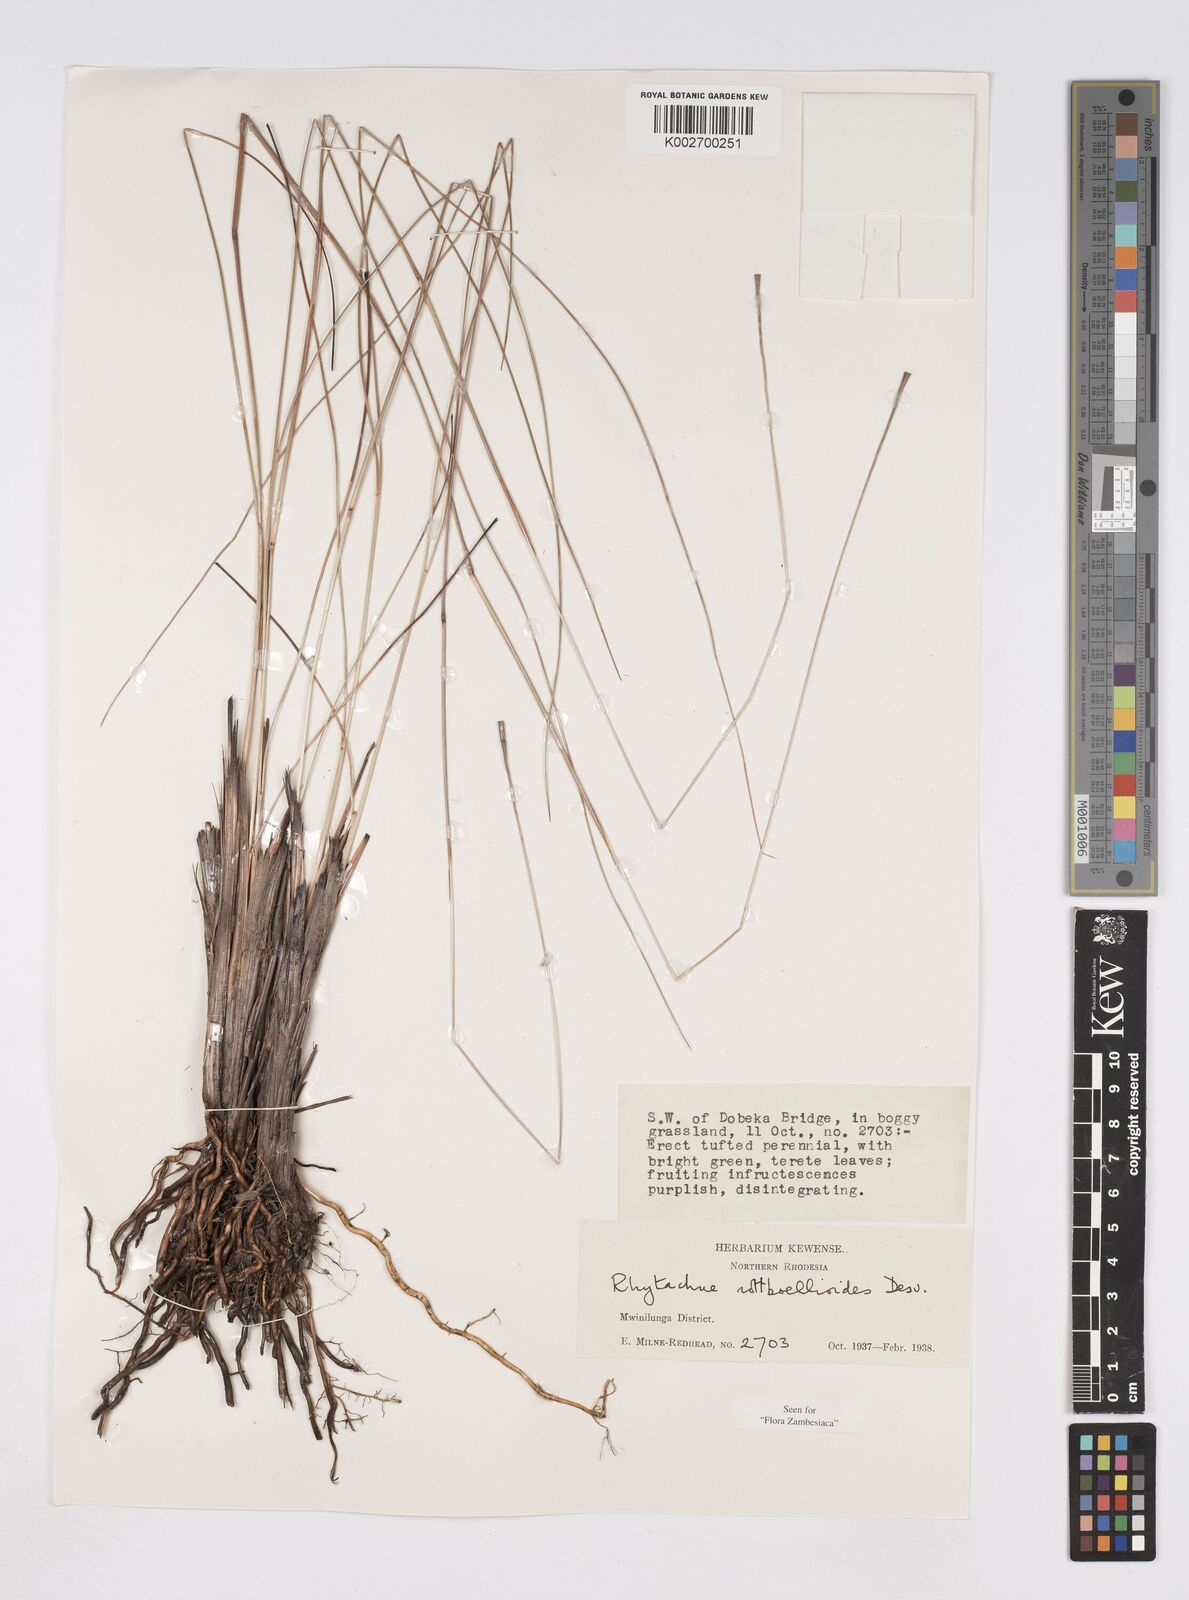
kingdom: Plantae
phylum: Tracheophyta
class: Liliopsida
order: Poales
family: Poaceae
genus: Rhytachne
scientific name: Rhytachne rottboellioides
